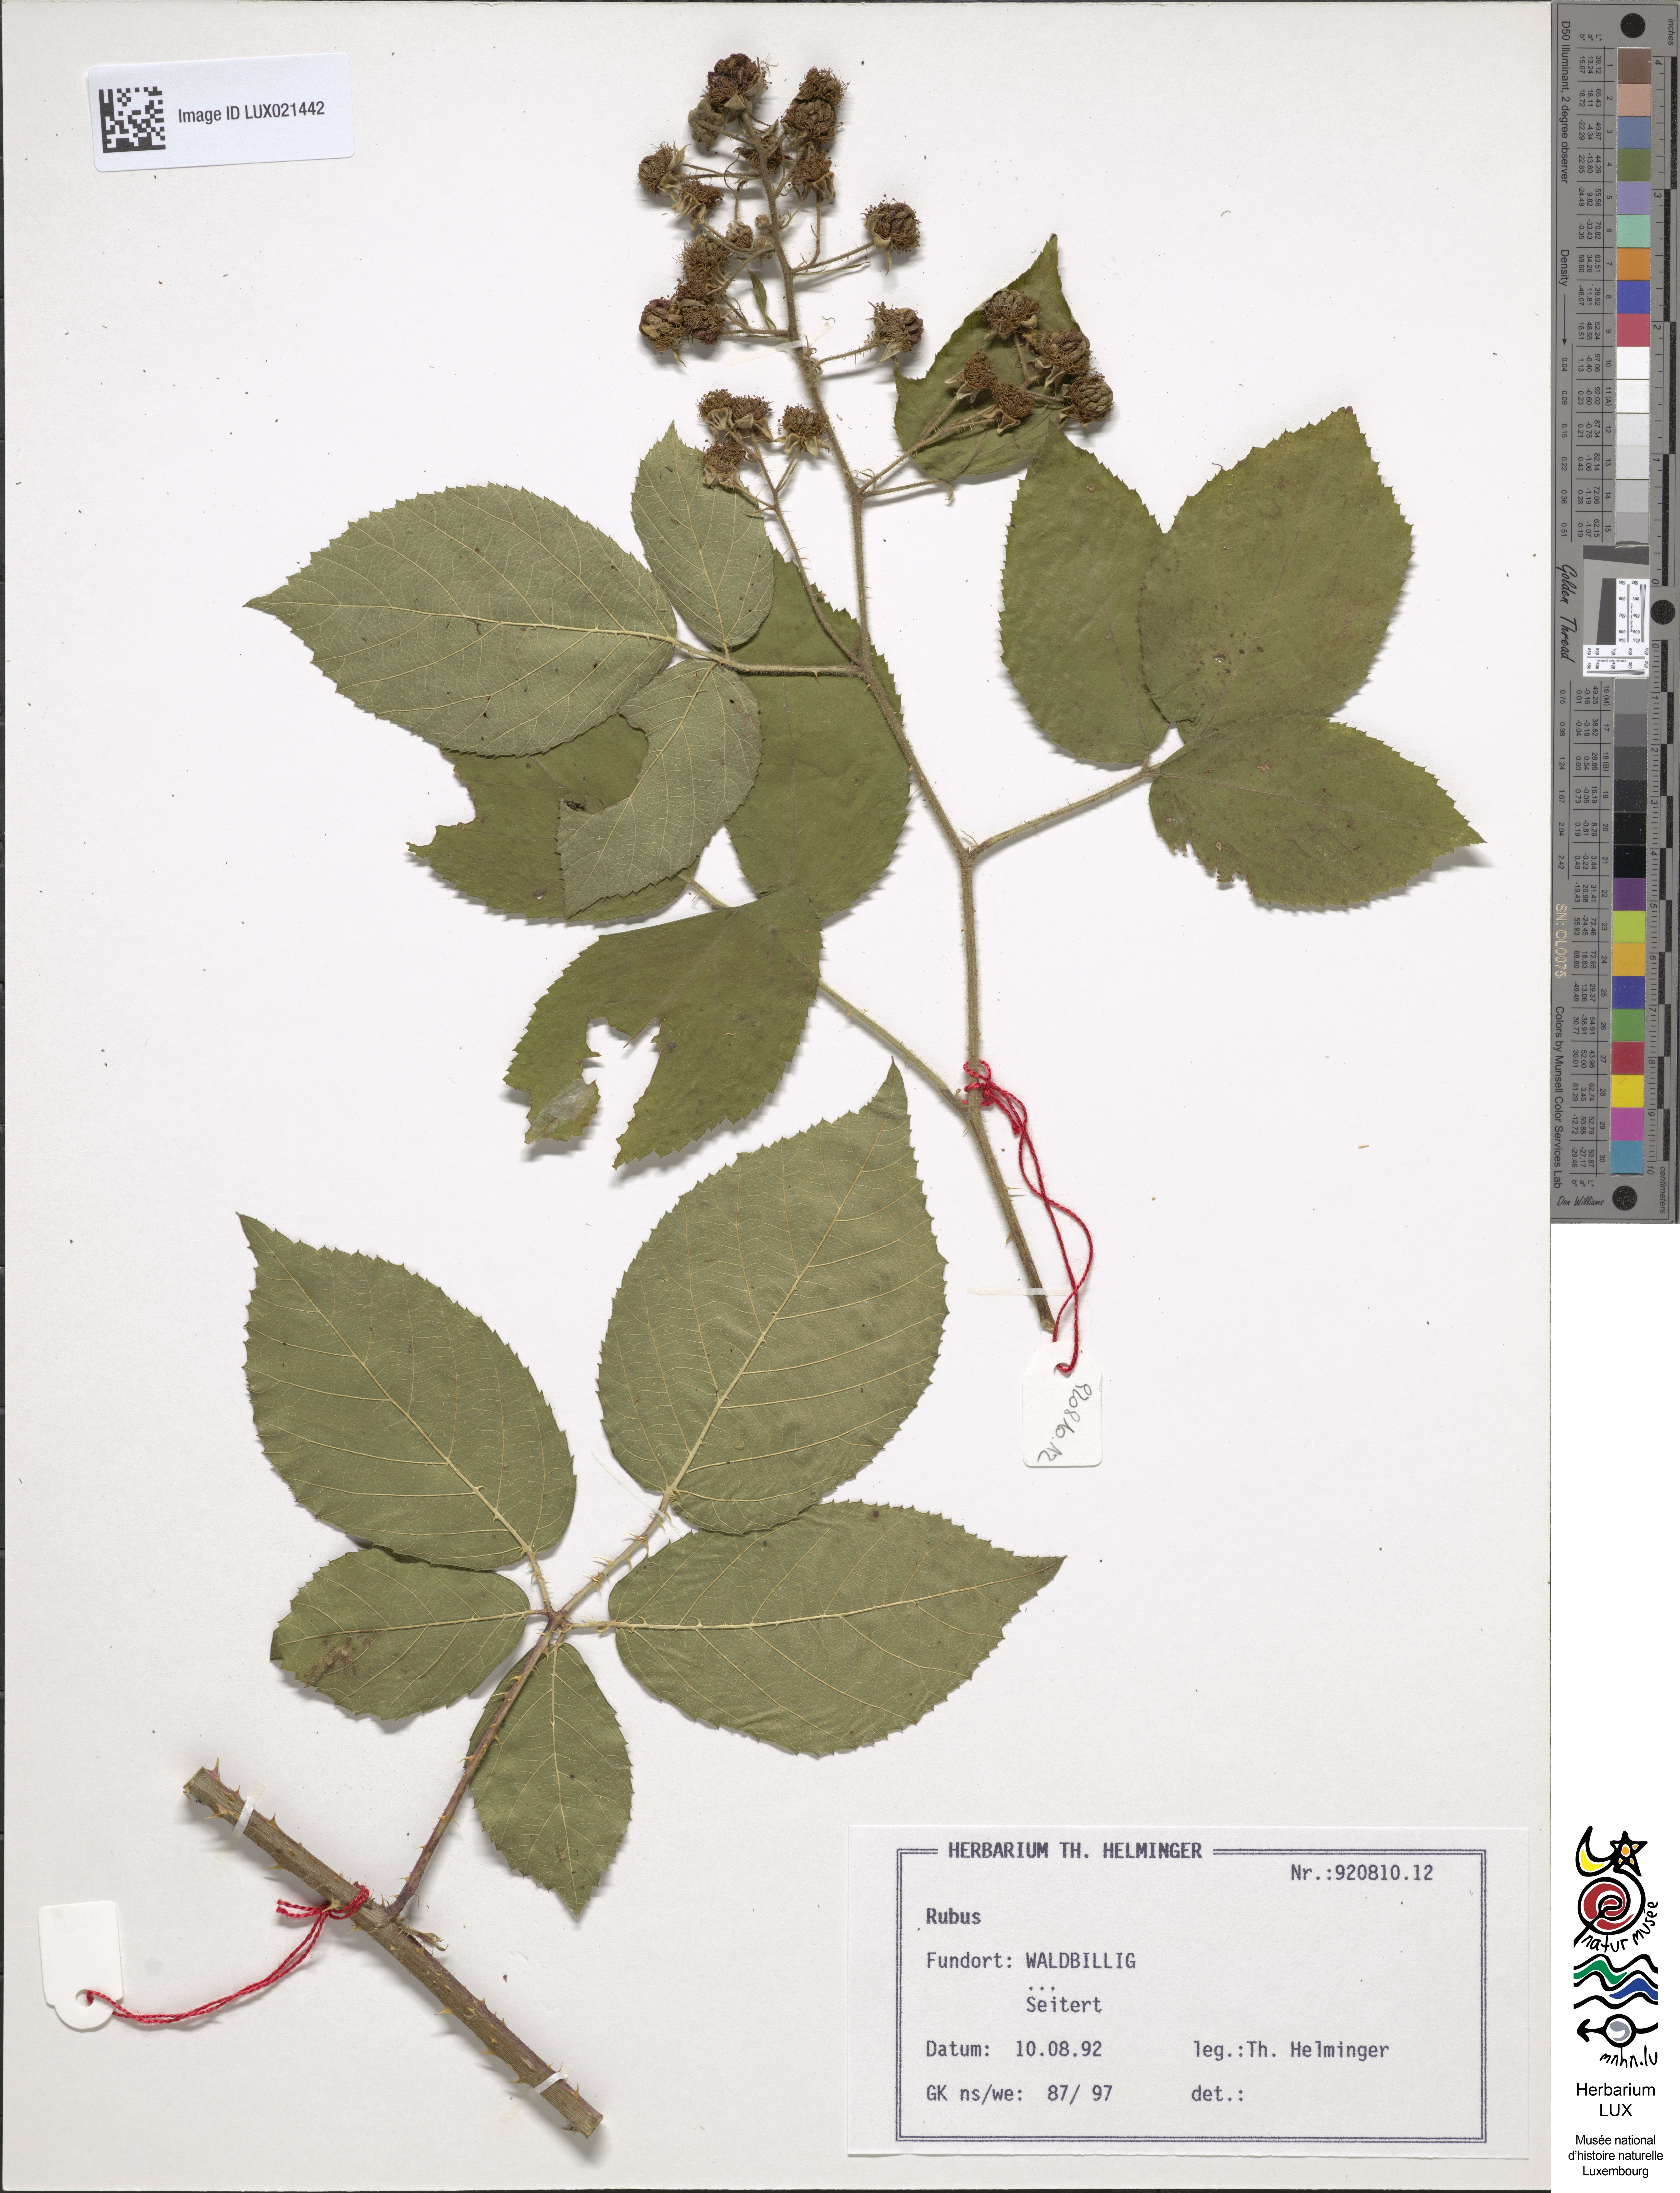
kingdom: Plantae
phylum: Tracheophyta
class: Magnoliopsida
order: Rosales
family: Rosaceae
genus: Rubus
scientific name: Rubus
